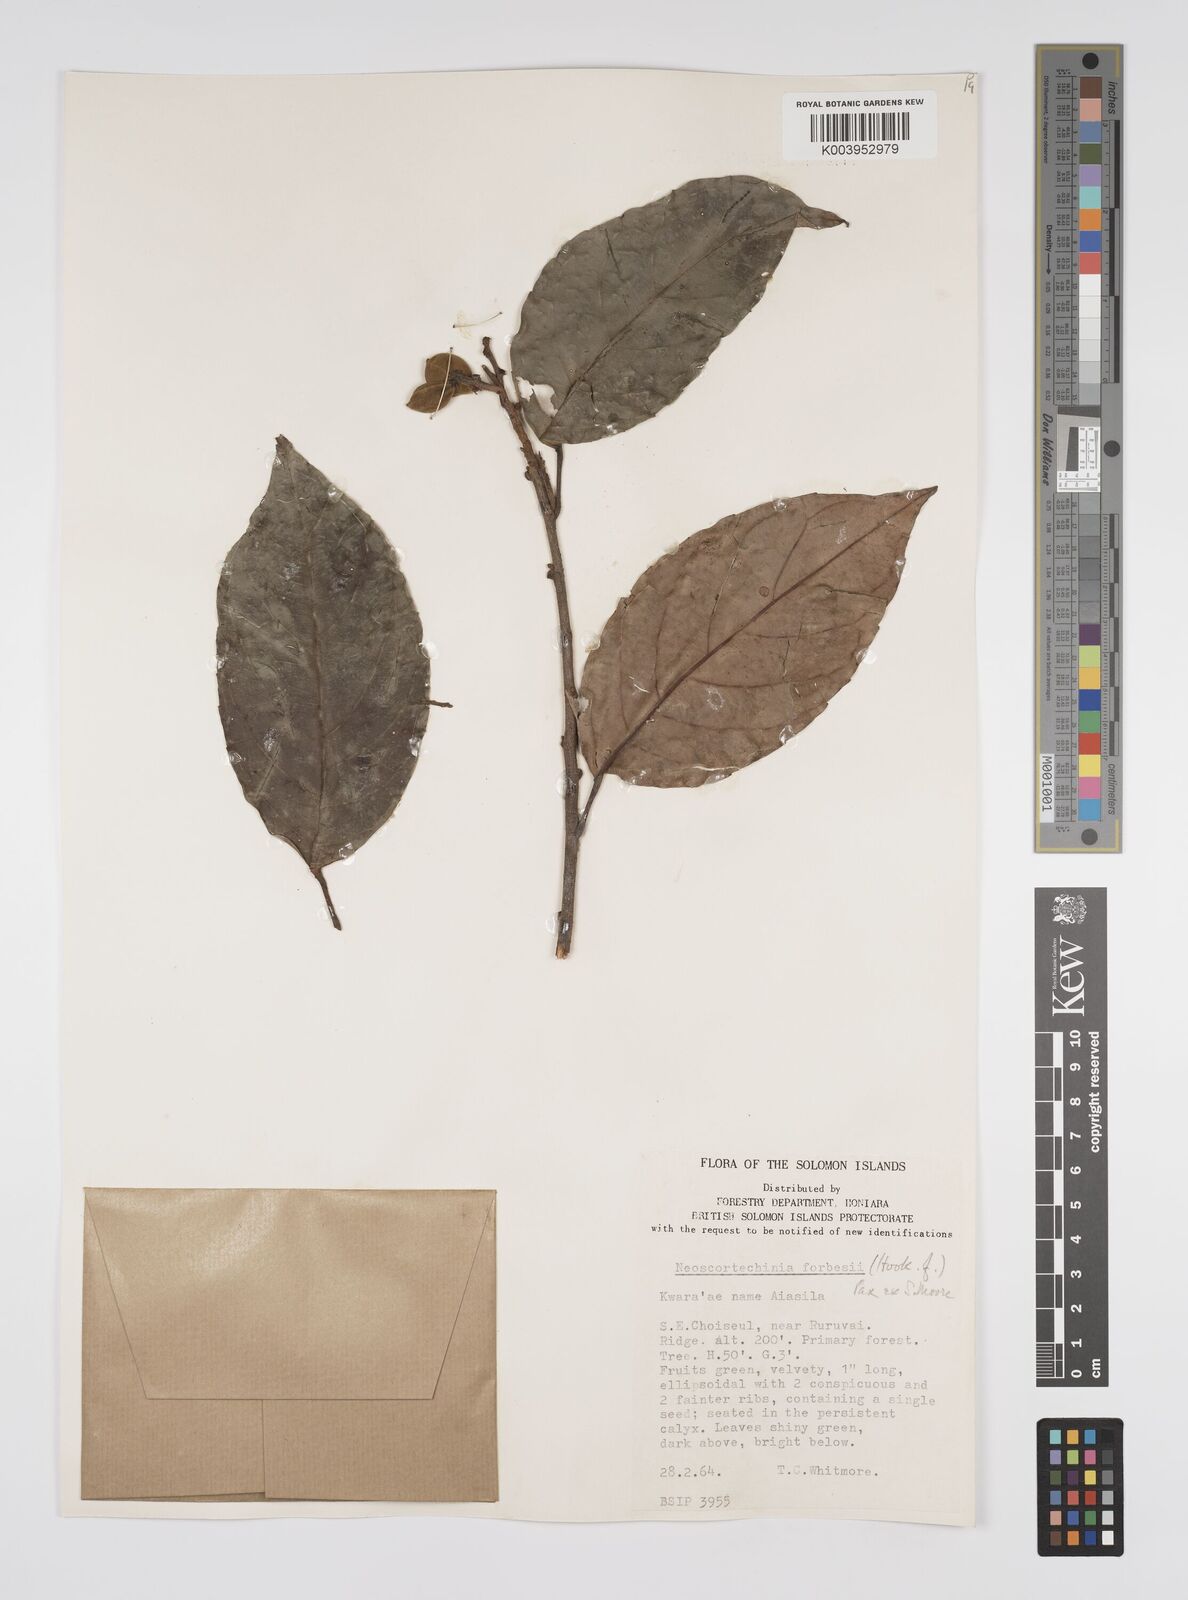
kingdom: Plantae
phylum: Tracheophyta
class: Magnoliopsida
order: Malpighiales
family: Euphorbiaceae
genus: Neoscortechinia
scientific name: Neoscortechinia forbesii
